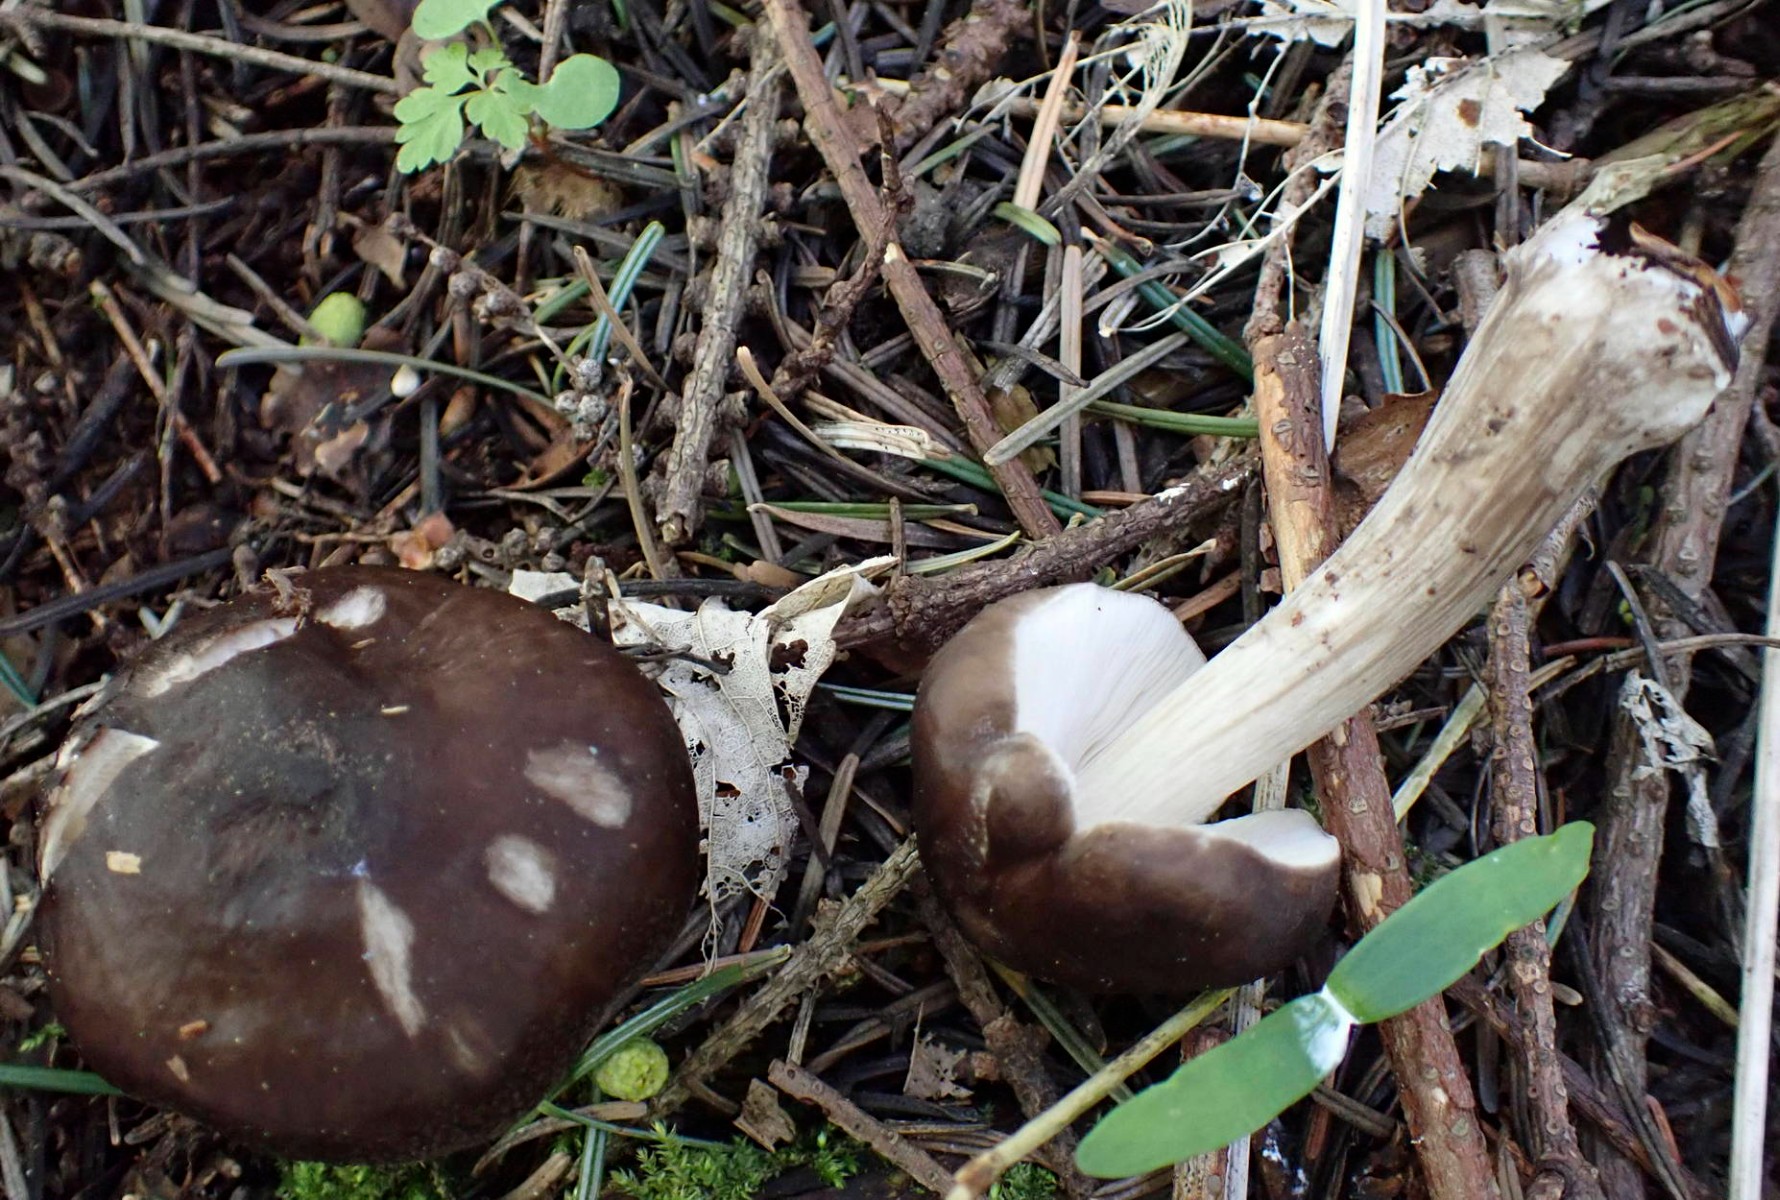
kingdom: Fungi
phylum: Basidiomycota
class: Agaricomycetes
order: Agaricales
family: Pluteaceae
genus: Pluteus
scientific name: Pluteus primus
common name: tidlig skærmhat
